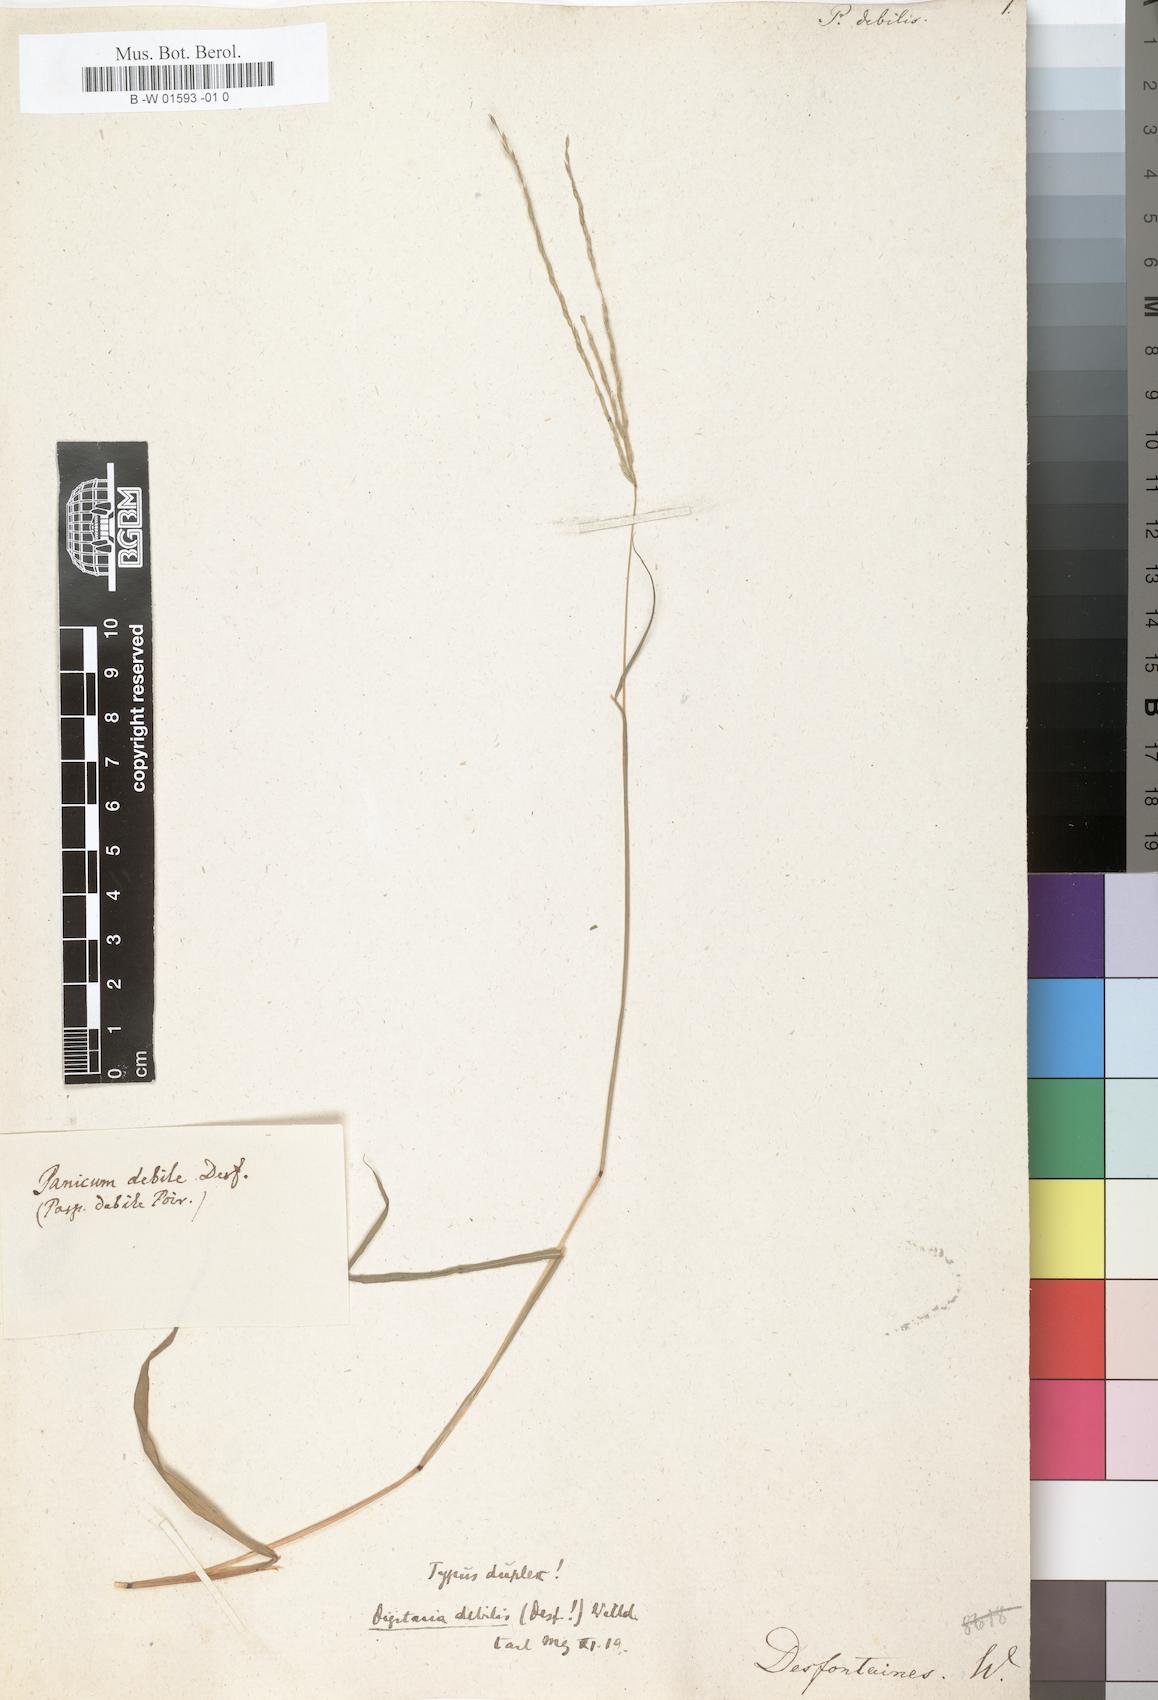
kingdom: Plantae
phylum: Tracheophyta
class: Liliopsida
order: Poales
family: Poaceae
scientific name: Poaceae
